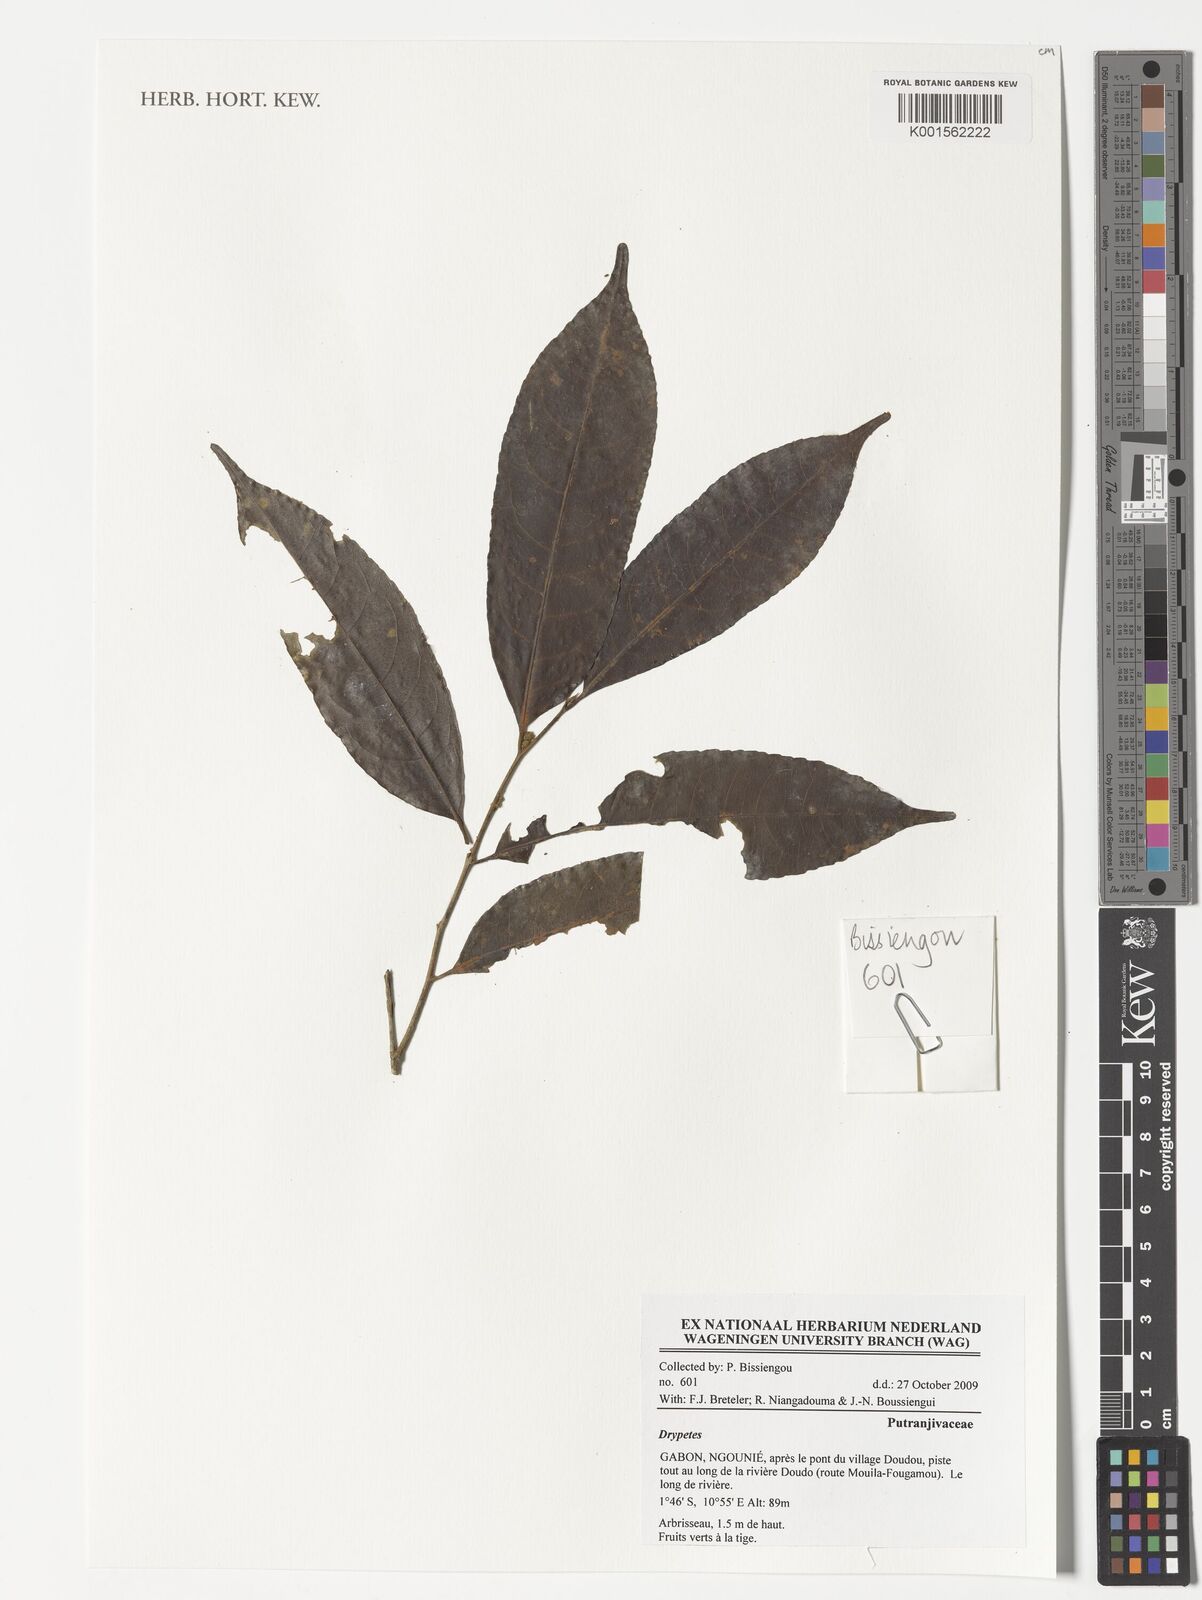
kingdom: Plantae
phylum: Tracheophyta
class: Magnoliopsida
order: Malpighiales
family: Putranjivaceae
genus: Drypetes
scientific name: Drypetes
